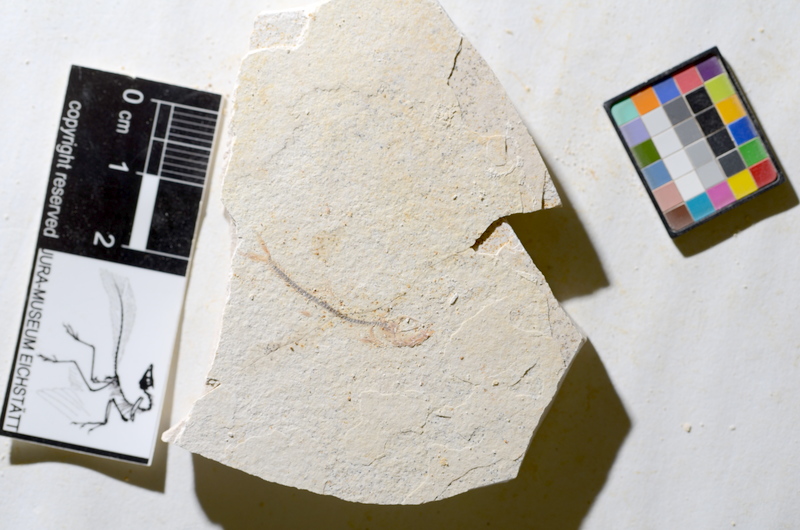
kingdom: Animalia
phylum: Chordata
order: Salmoniformes
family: Orthogonikleithridae
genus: Orthogonikleithrus
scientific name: Orthogonikleithrus hoelli
